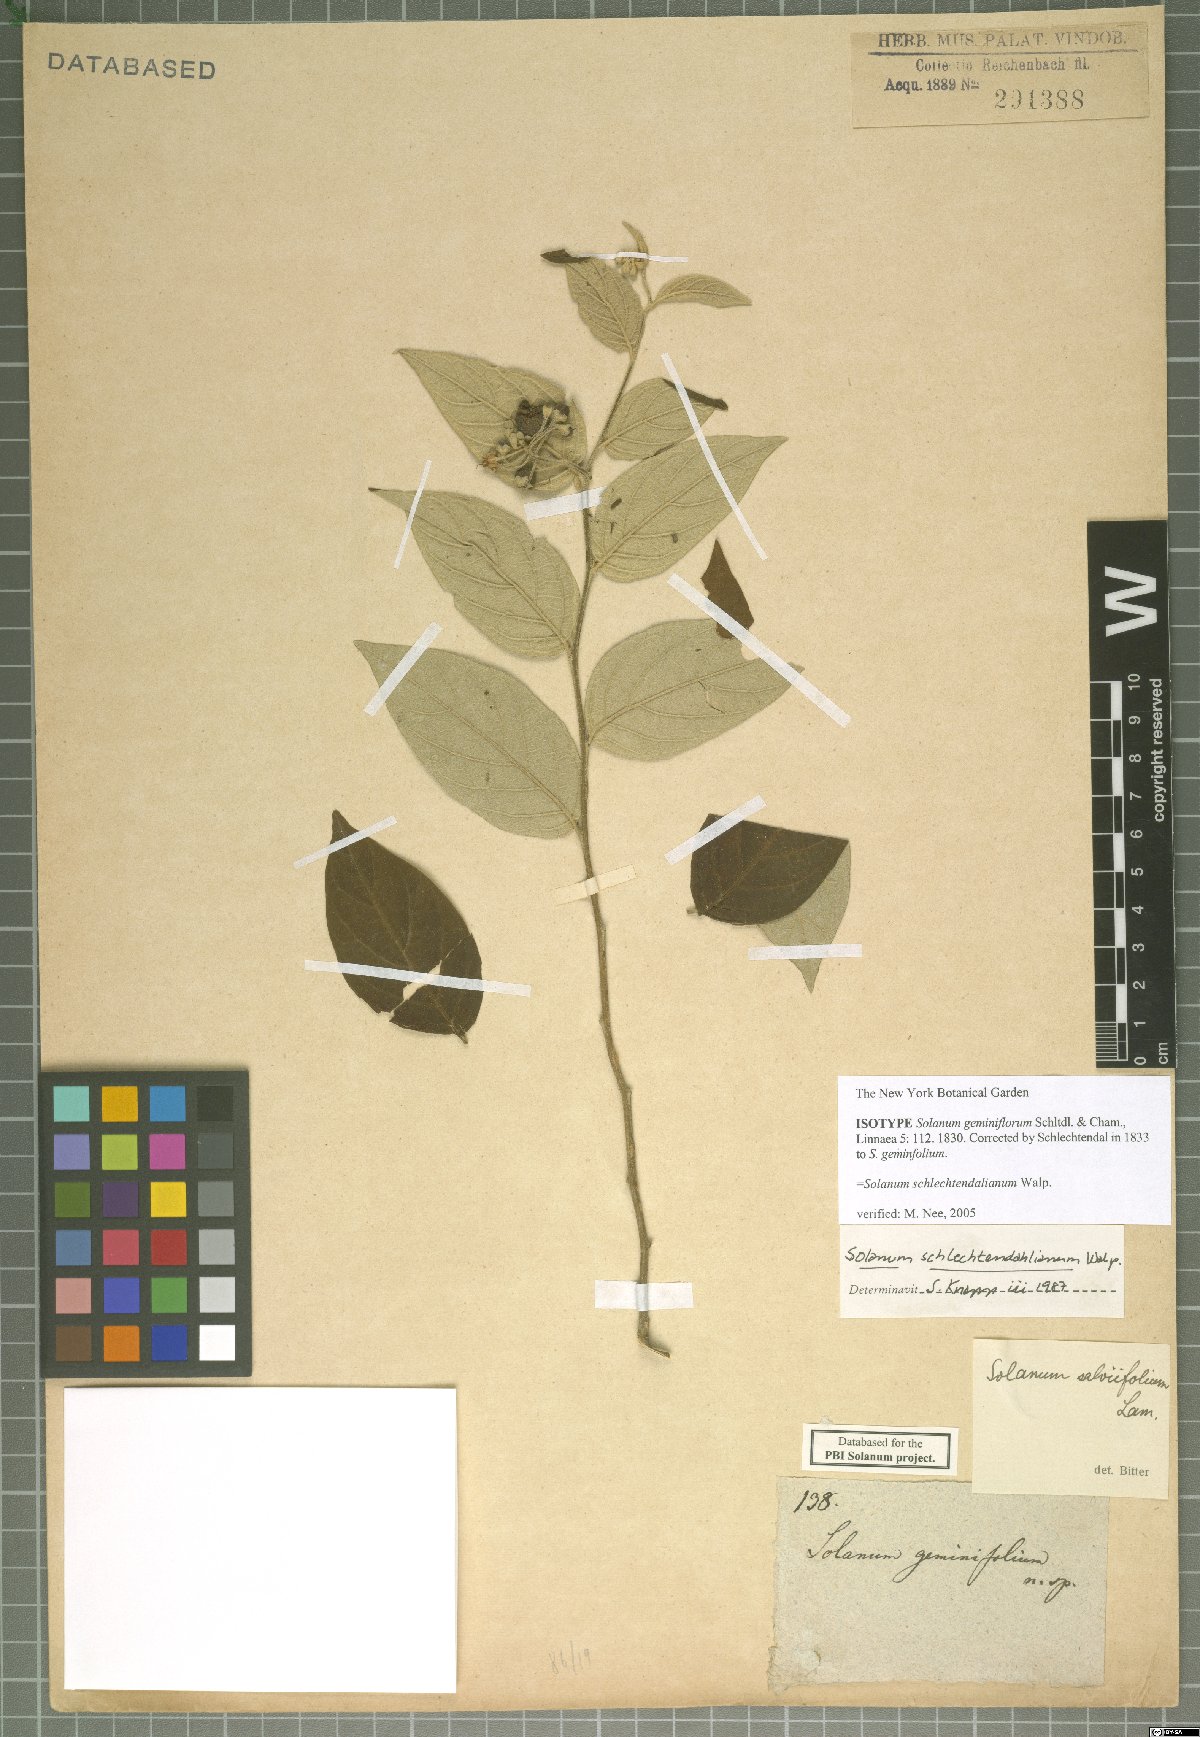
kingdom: Plantae
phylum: Tracheophyta
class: Magnoliopsida
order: Solanales
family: Solanaceae
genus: Solanum
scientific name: Solanum schlechtendalianum
